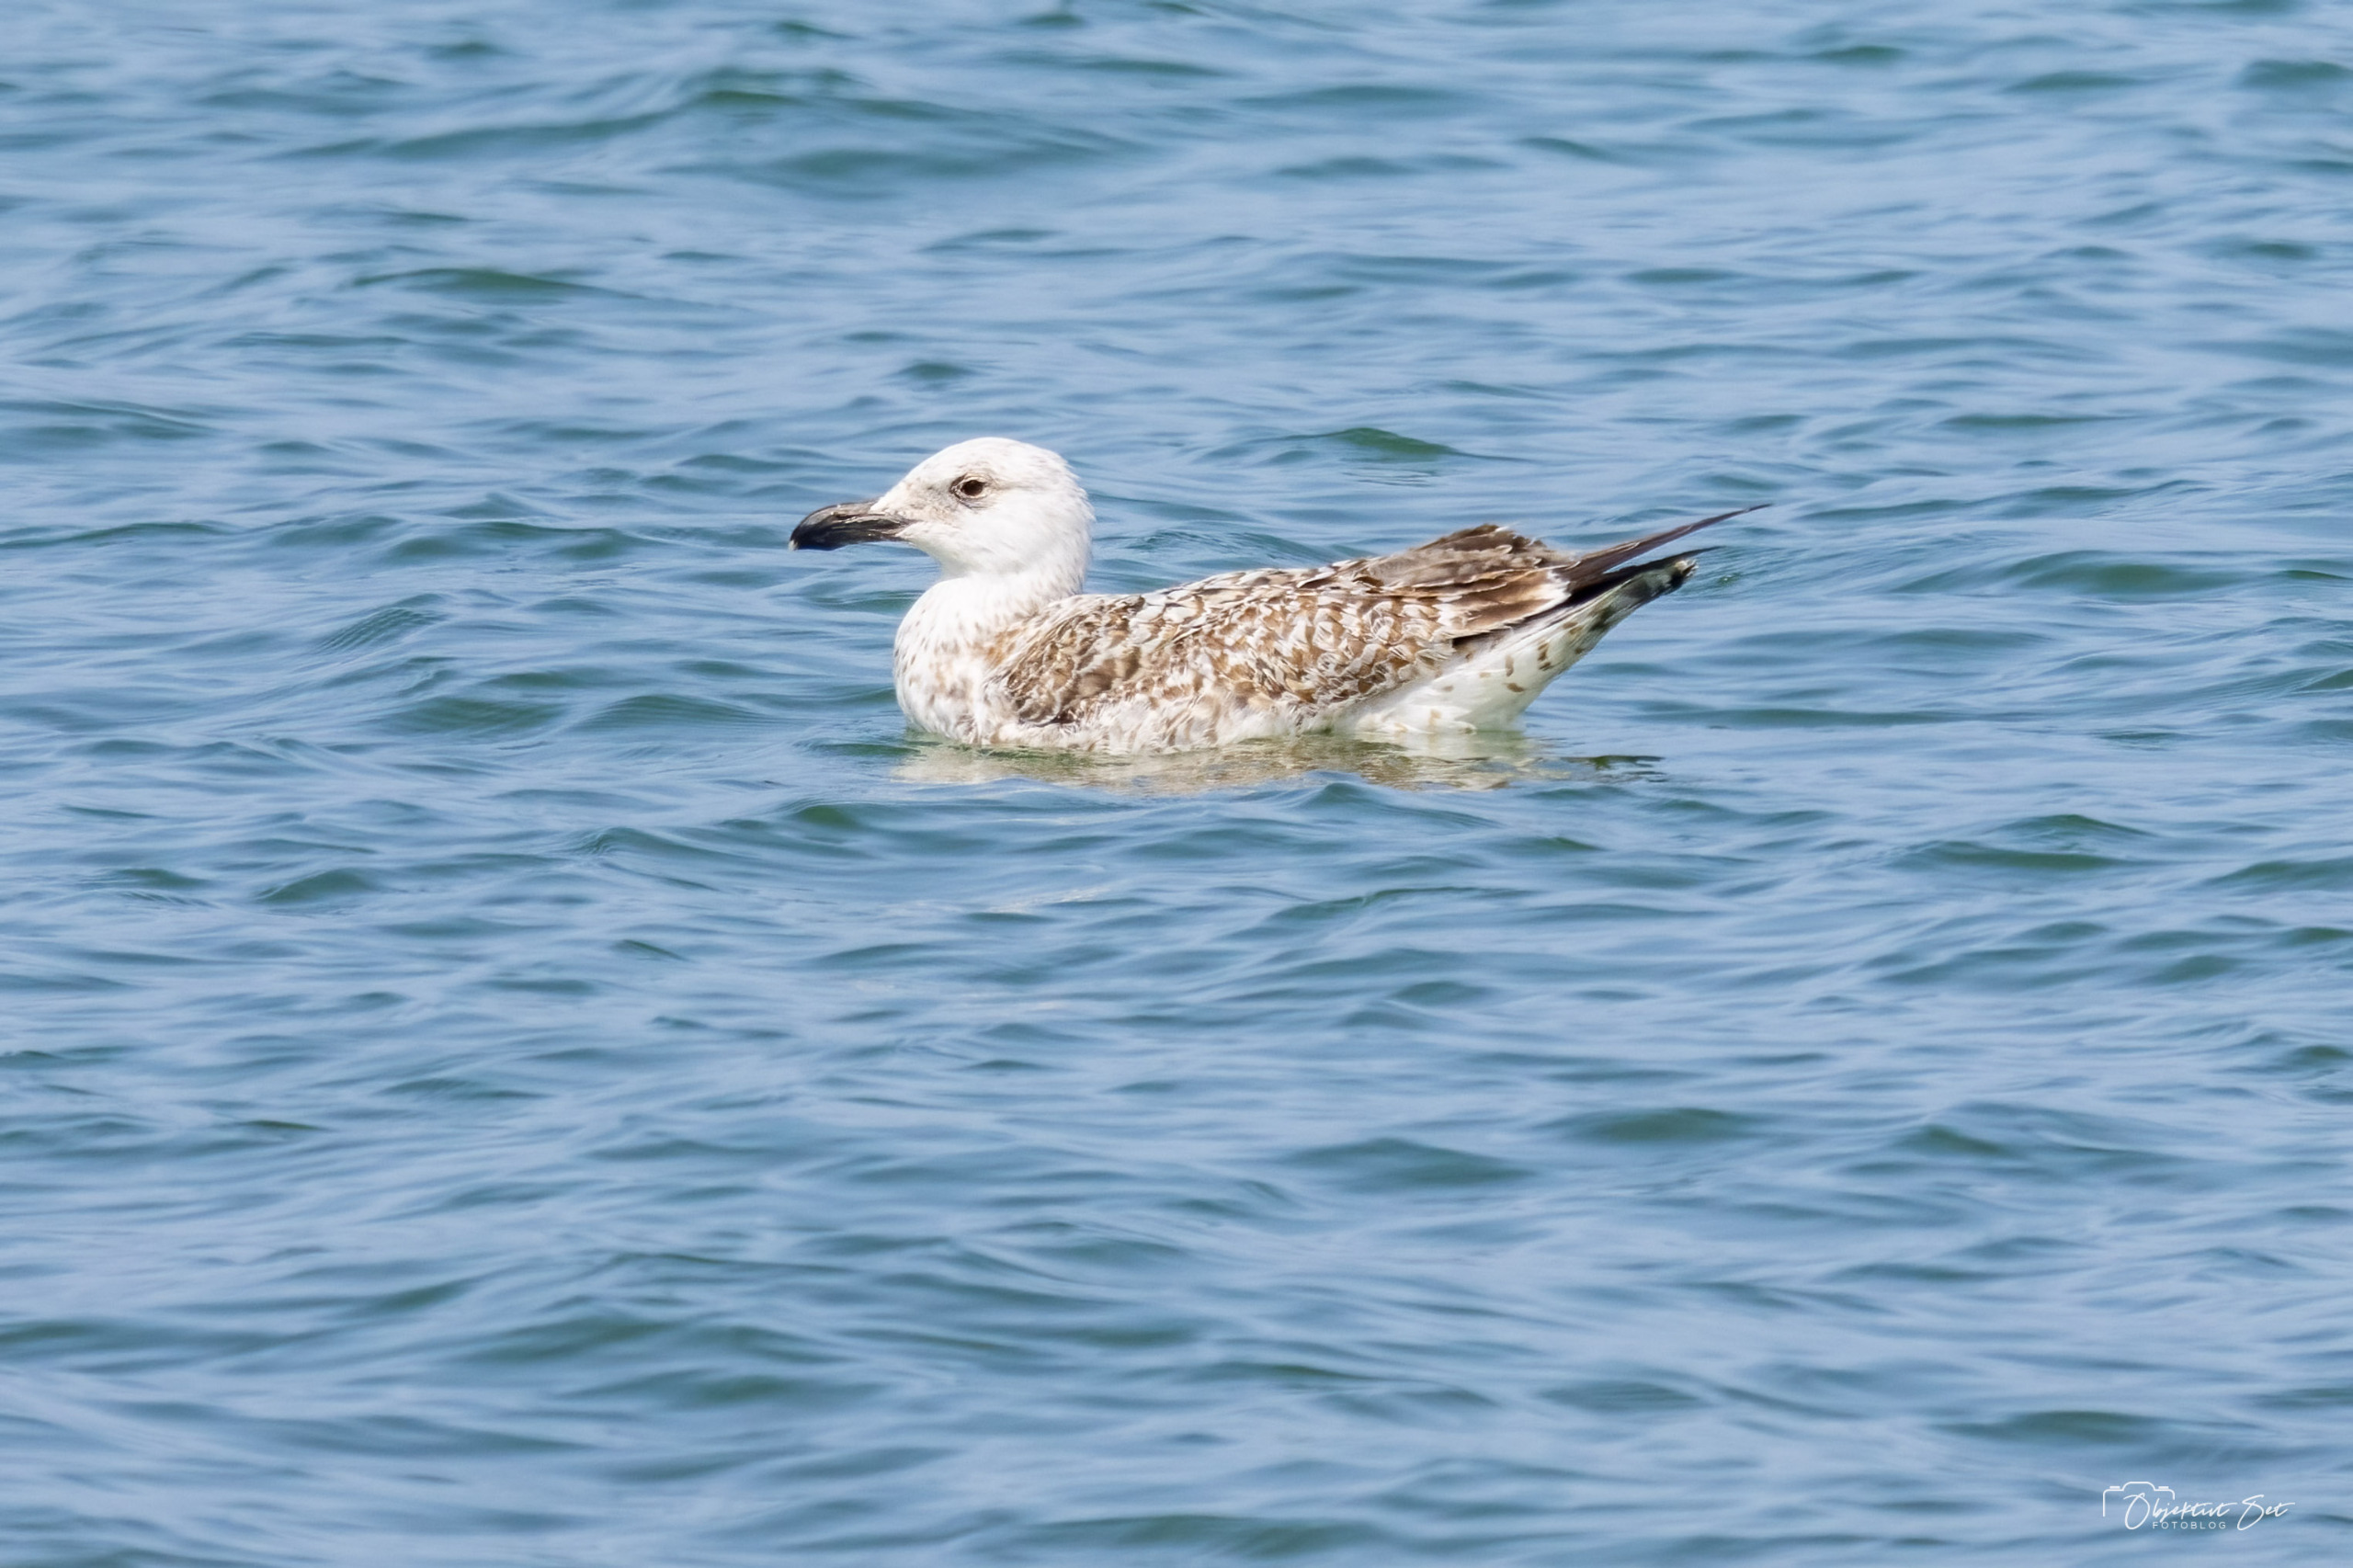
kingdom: Animalia
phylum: Chordata
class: Aves
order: Charadriiformes
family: Laridae
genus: Larus
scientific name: Larus marinus
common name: Svartbag
